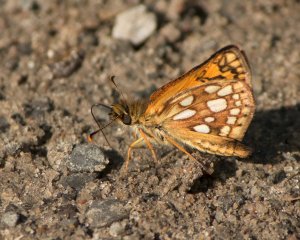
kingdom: Animalia
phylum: Arthropoda
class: Insecta
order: Lepidoptera
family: Hesperiidae
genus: Carterocephalus
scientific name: Carterocephalus palaemon
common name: Chequered Skipper
